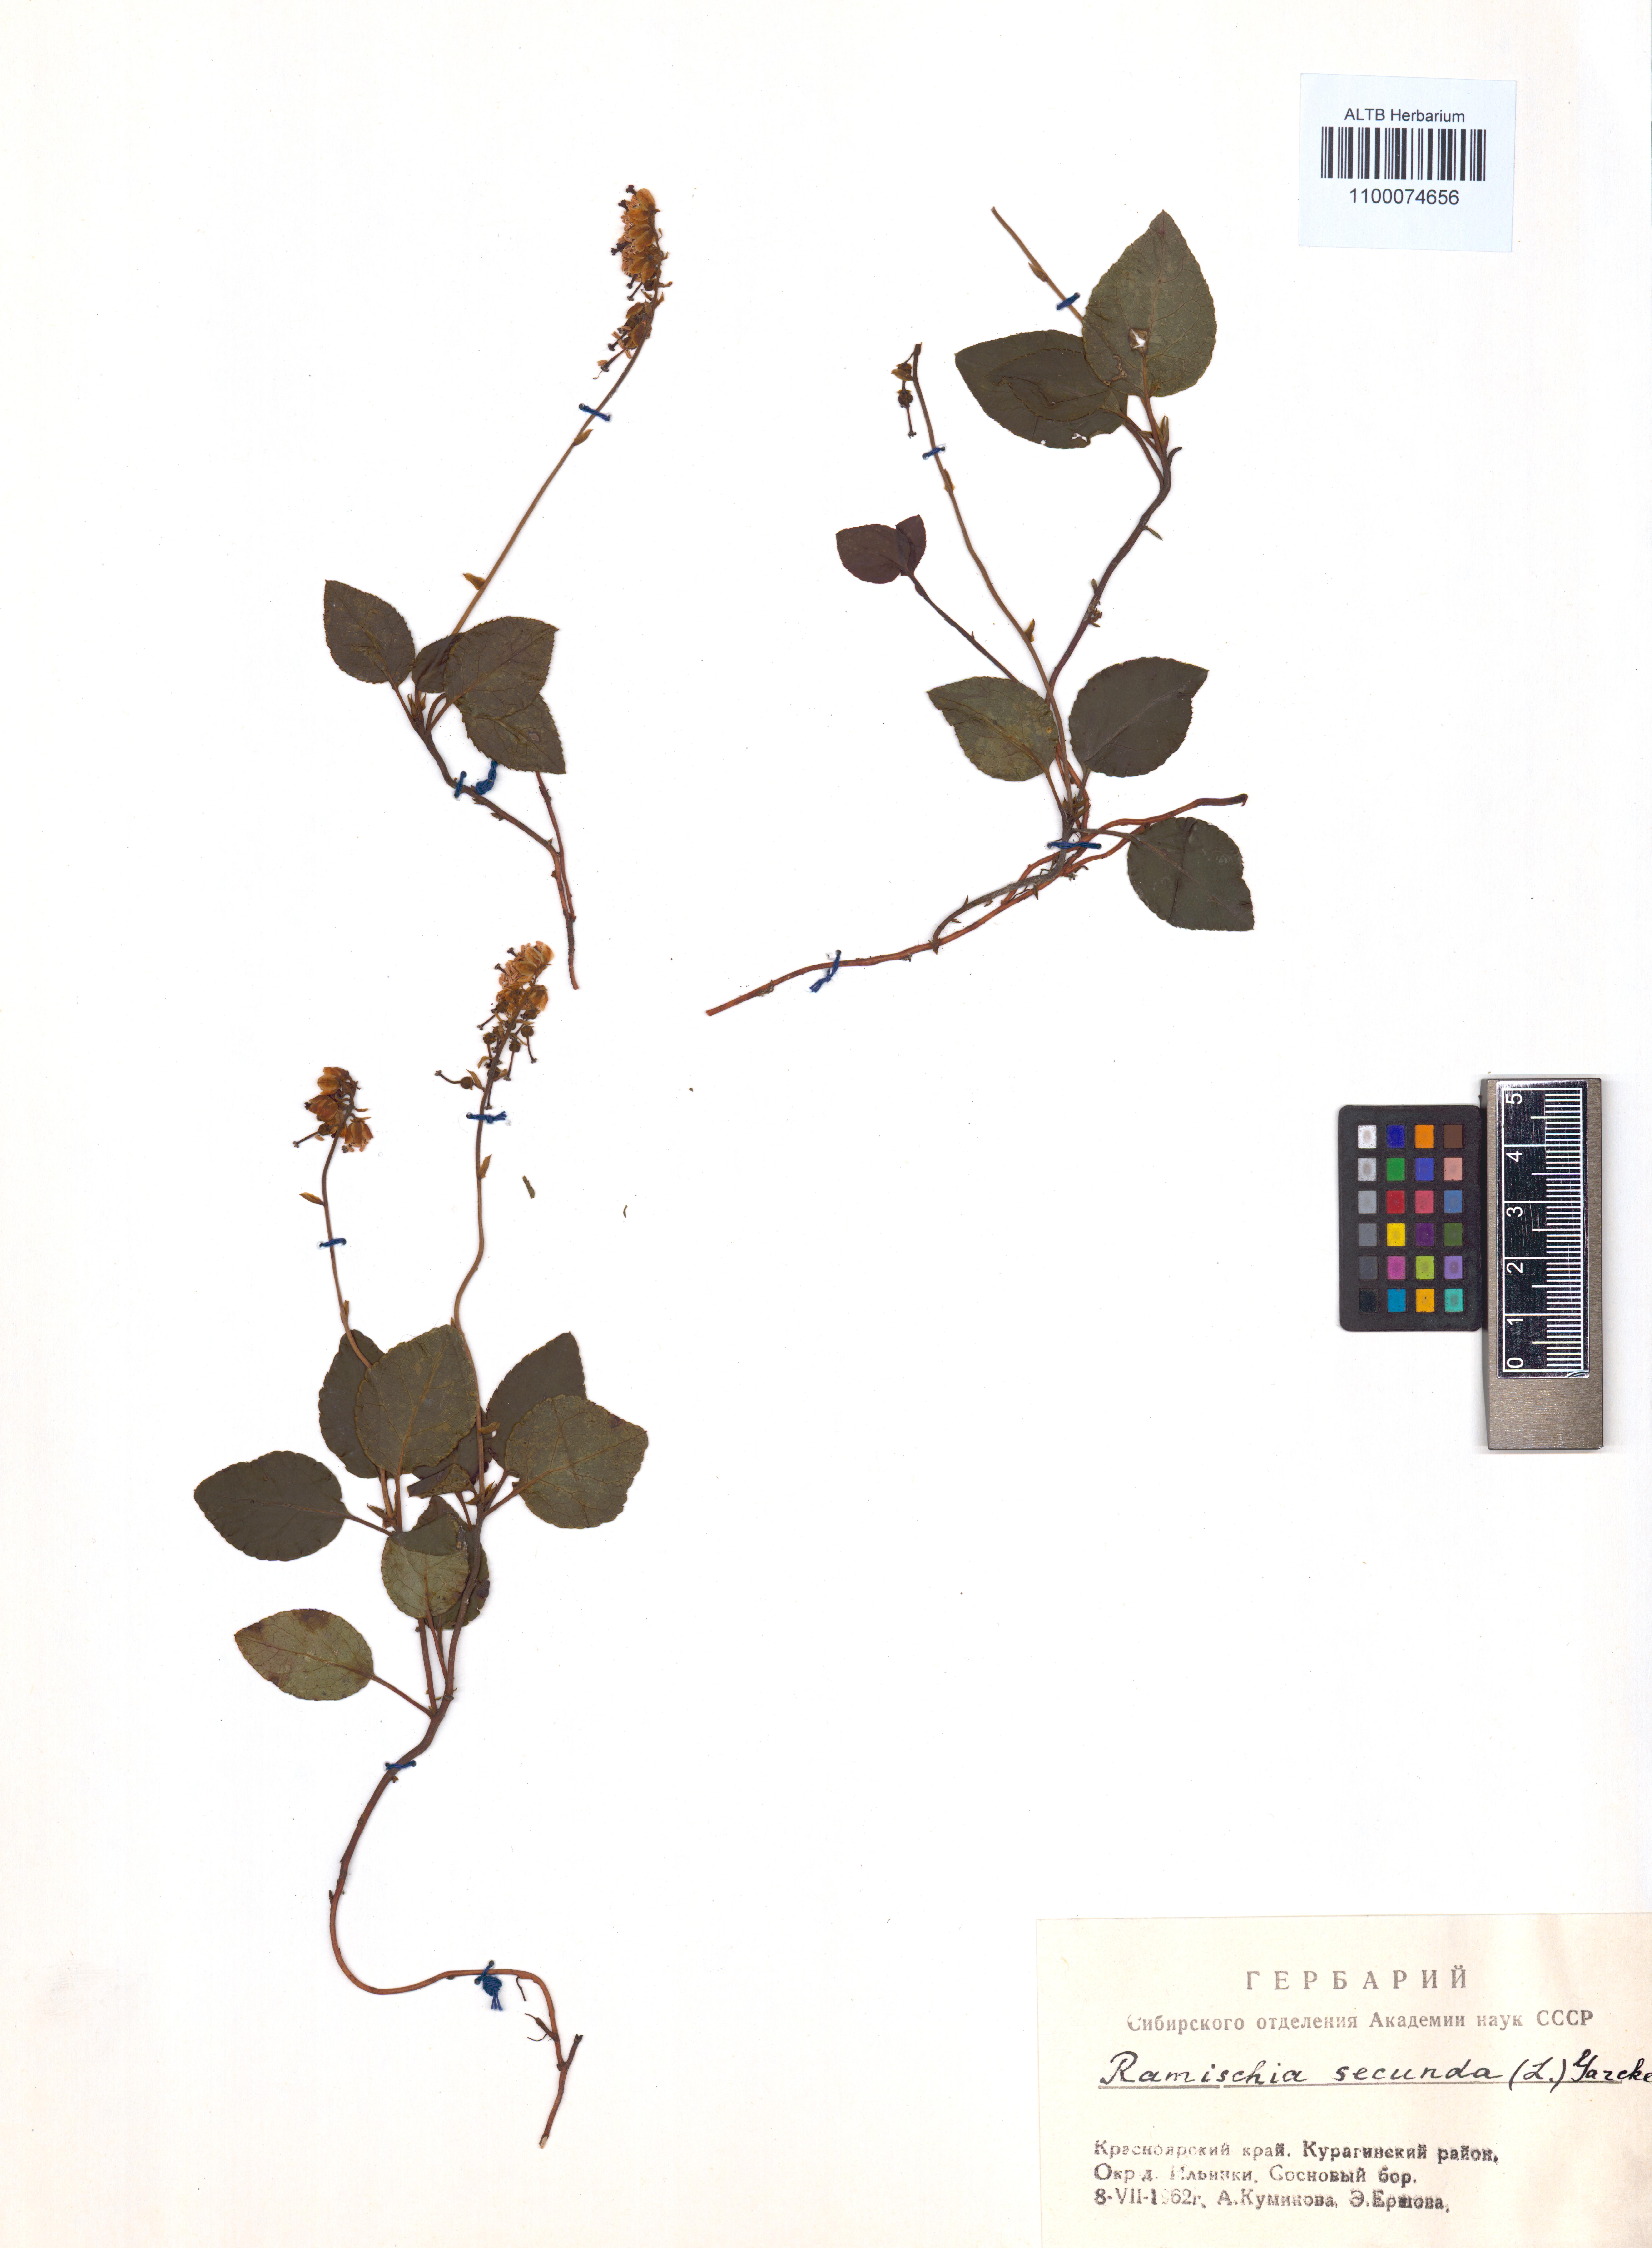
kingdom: Plantae
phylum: Tracheophyta
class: Magnoliopsida
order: Ericales
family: Ericaceae
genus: Orthilia
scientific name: Orthilia secunda
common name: One-sided orthilia
